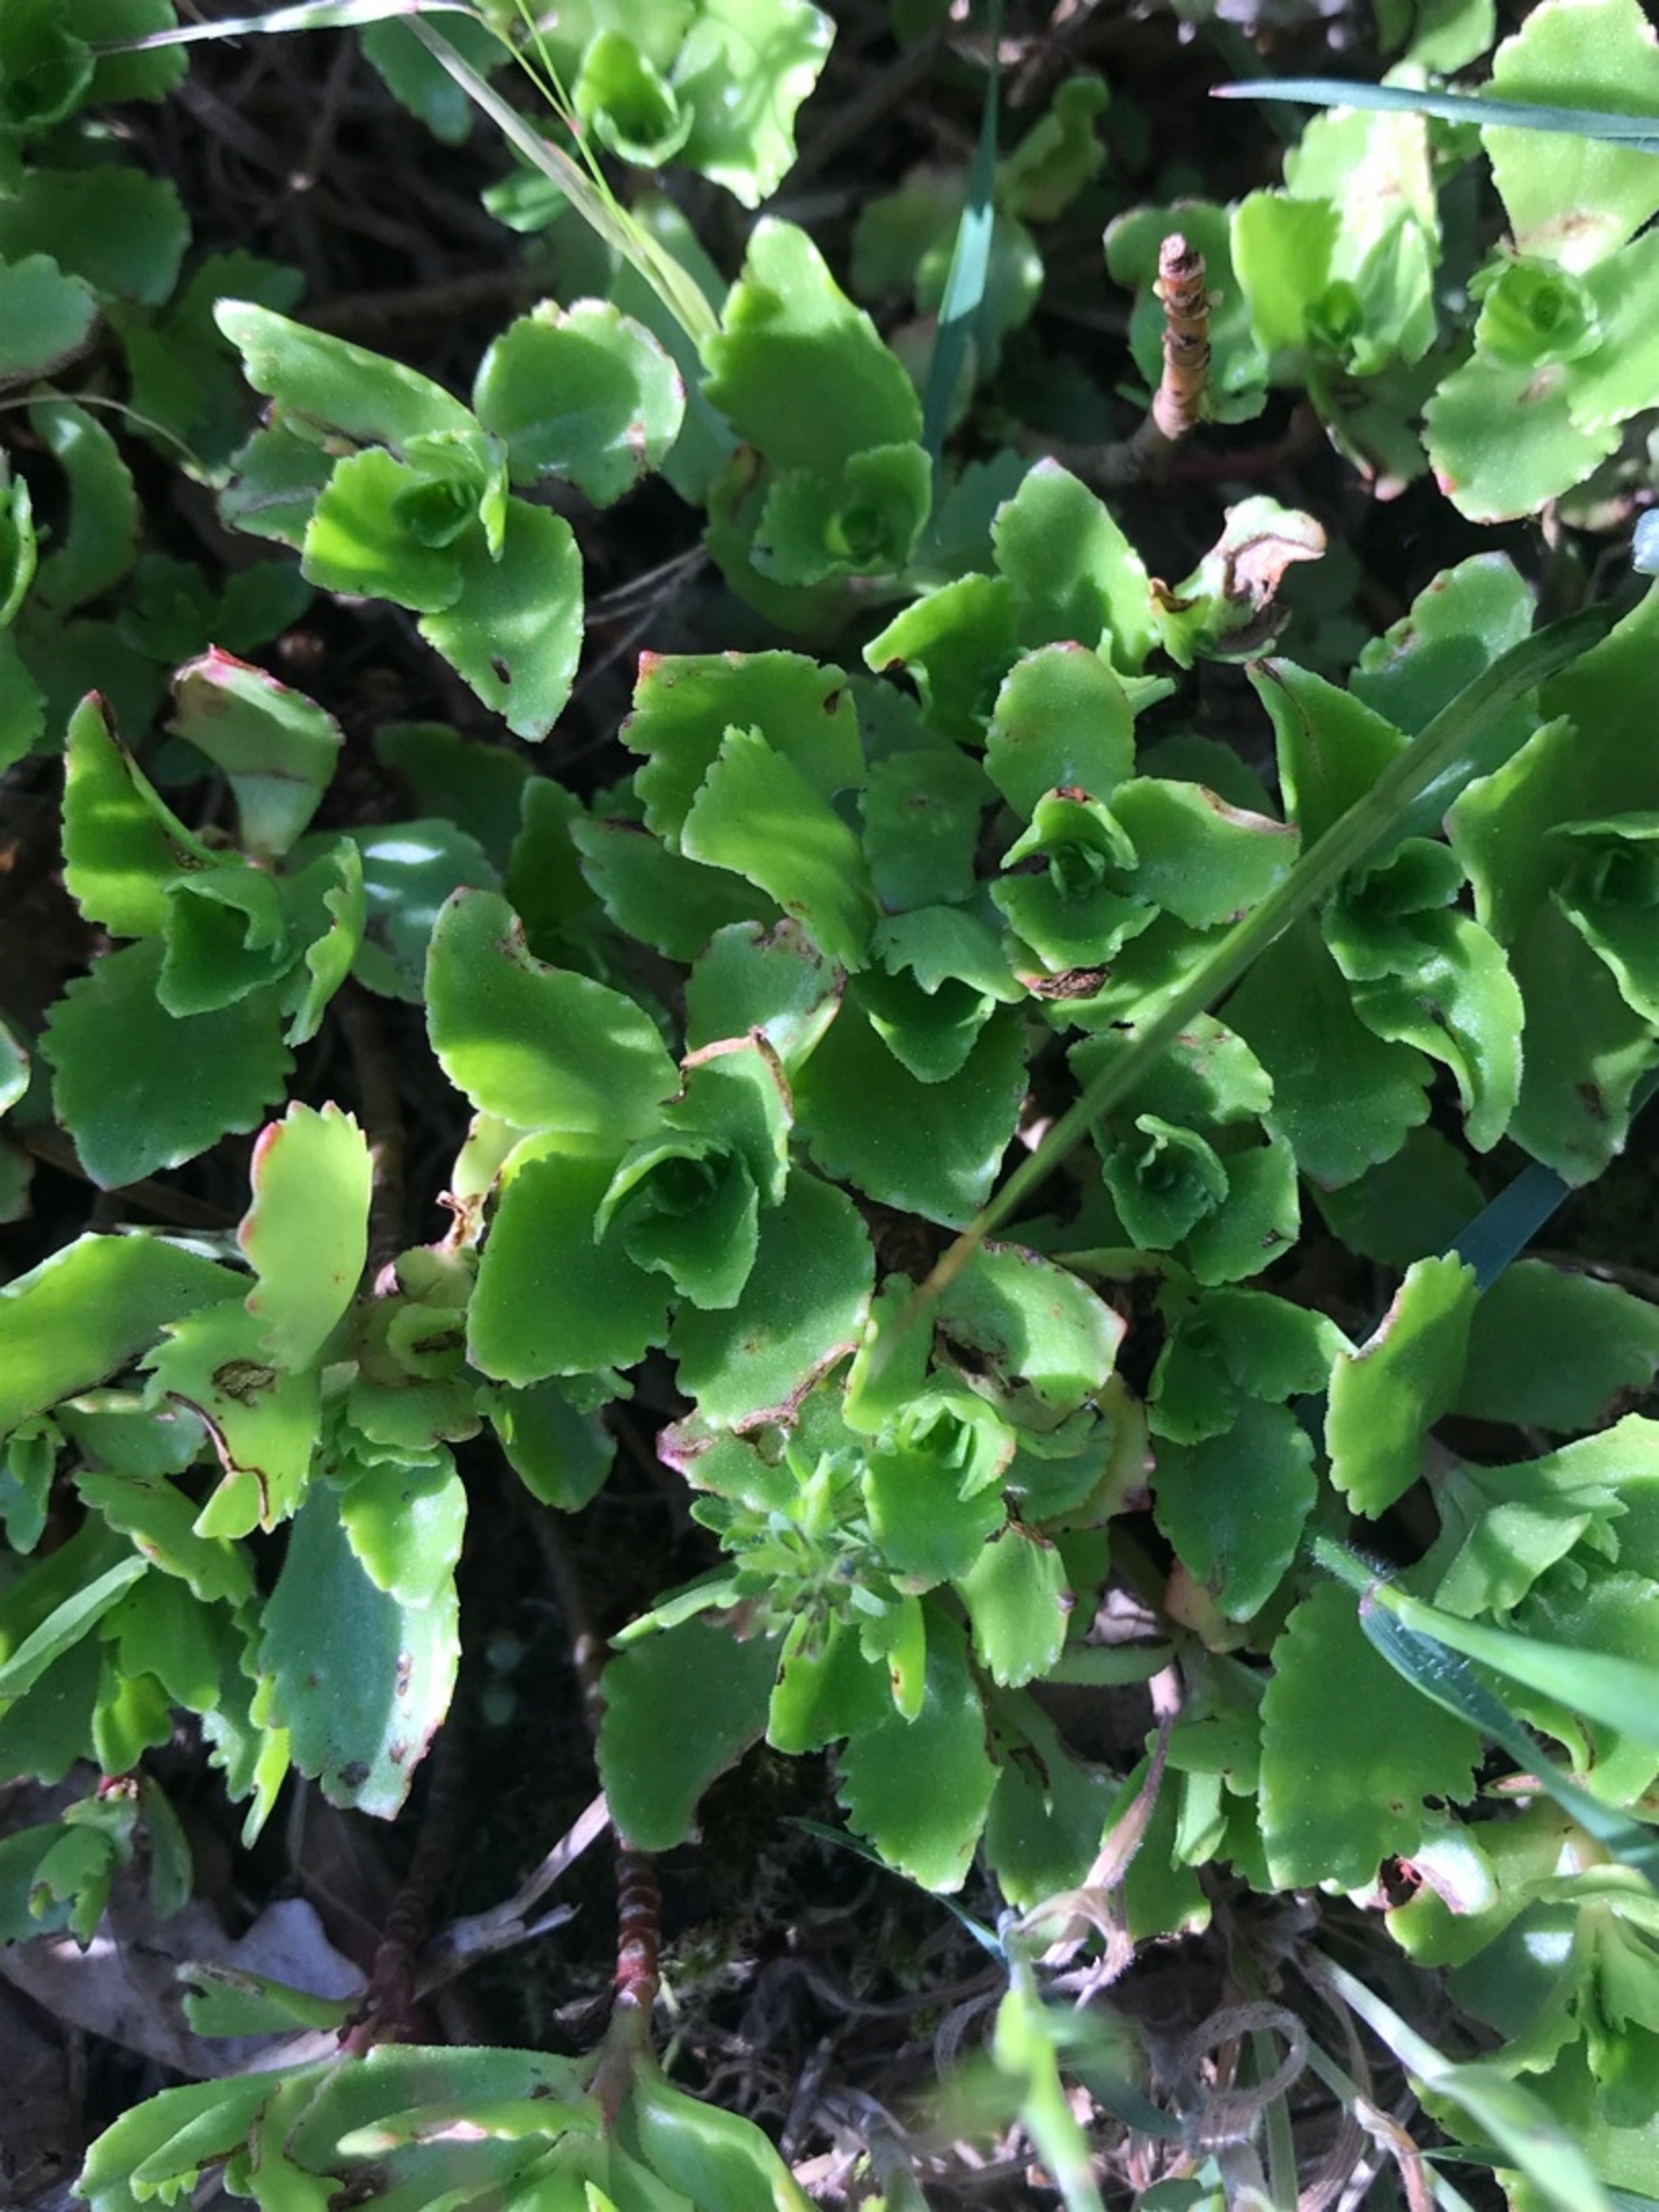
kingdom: Plantae
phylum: Tracheophyta
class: Magnoliopsida
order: Saxifragales
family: Crassulaceae
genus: Phedimus
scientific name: Phedimus spurius
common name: Rød stenurt
